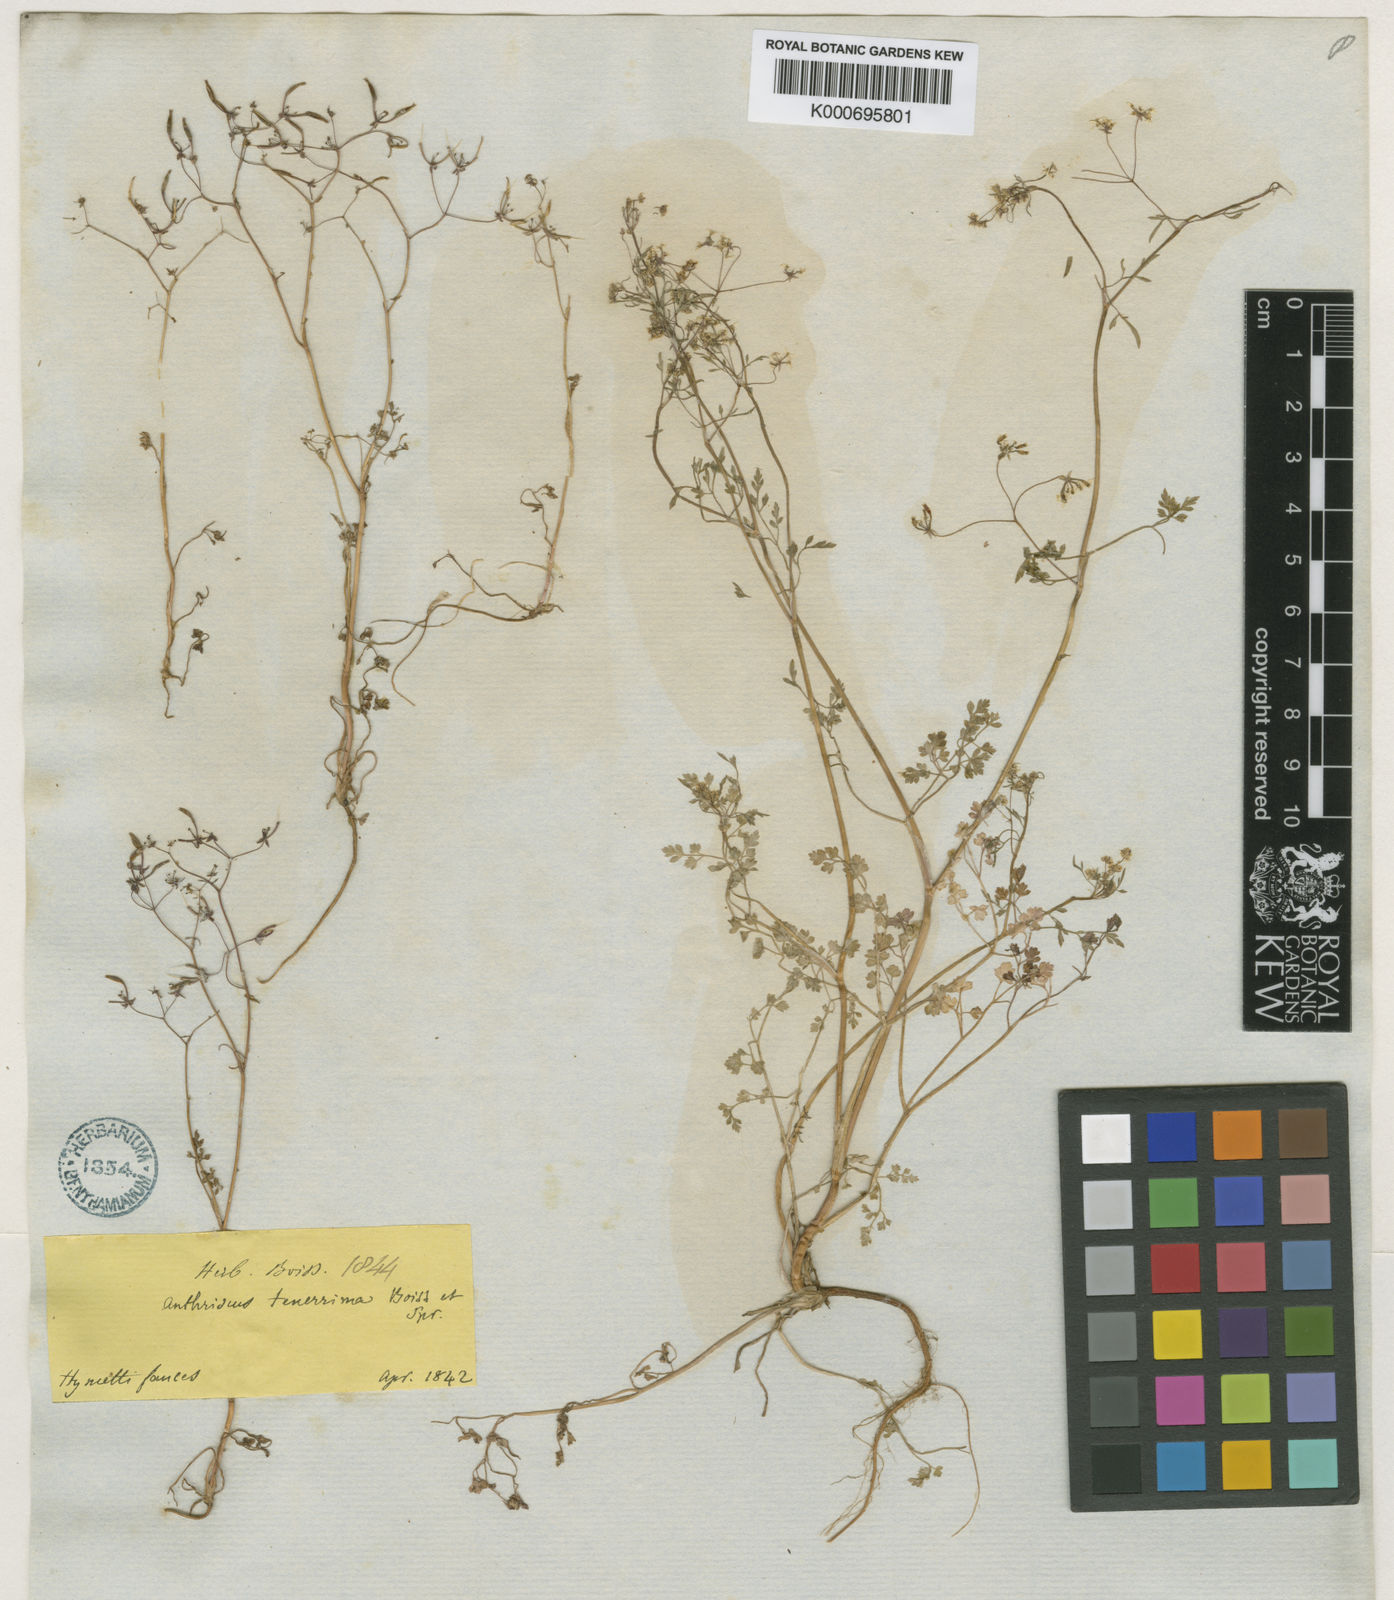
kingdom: Plantae
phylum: Tracheophyta
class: Magnoliopsida
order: Apiales
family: Apiaceae
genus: Anthriscus
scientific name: Anthriscus tenerrima
